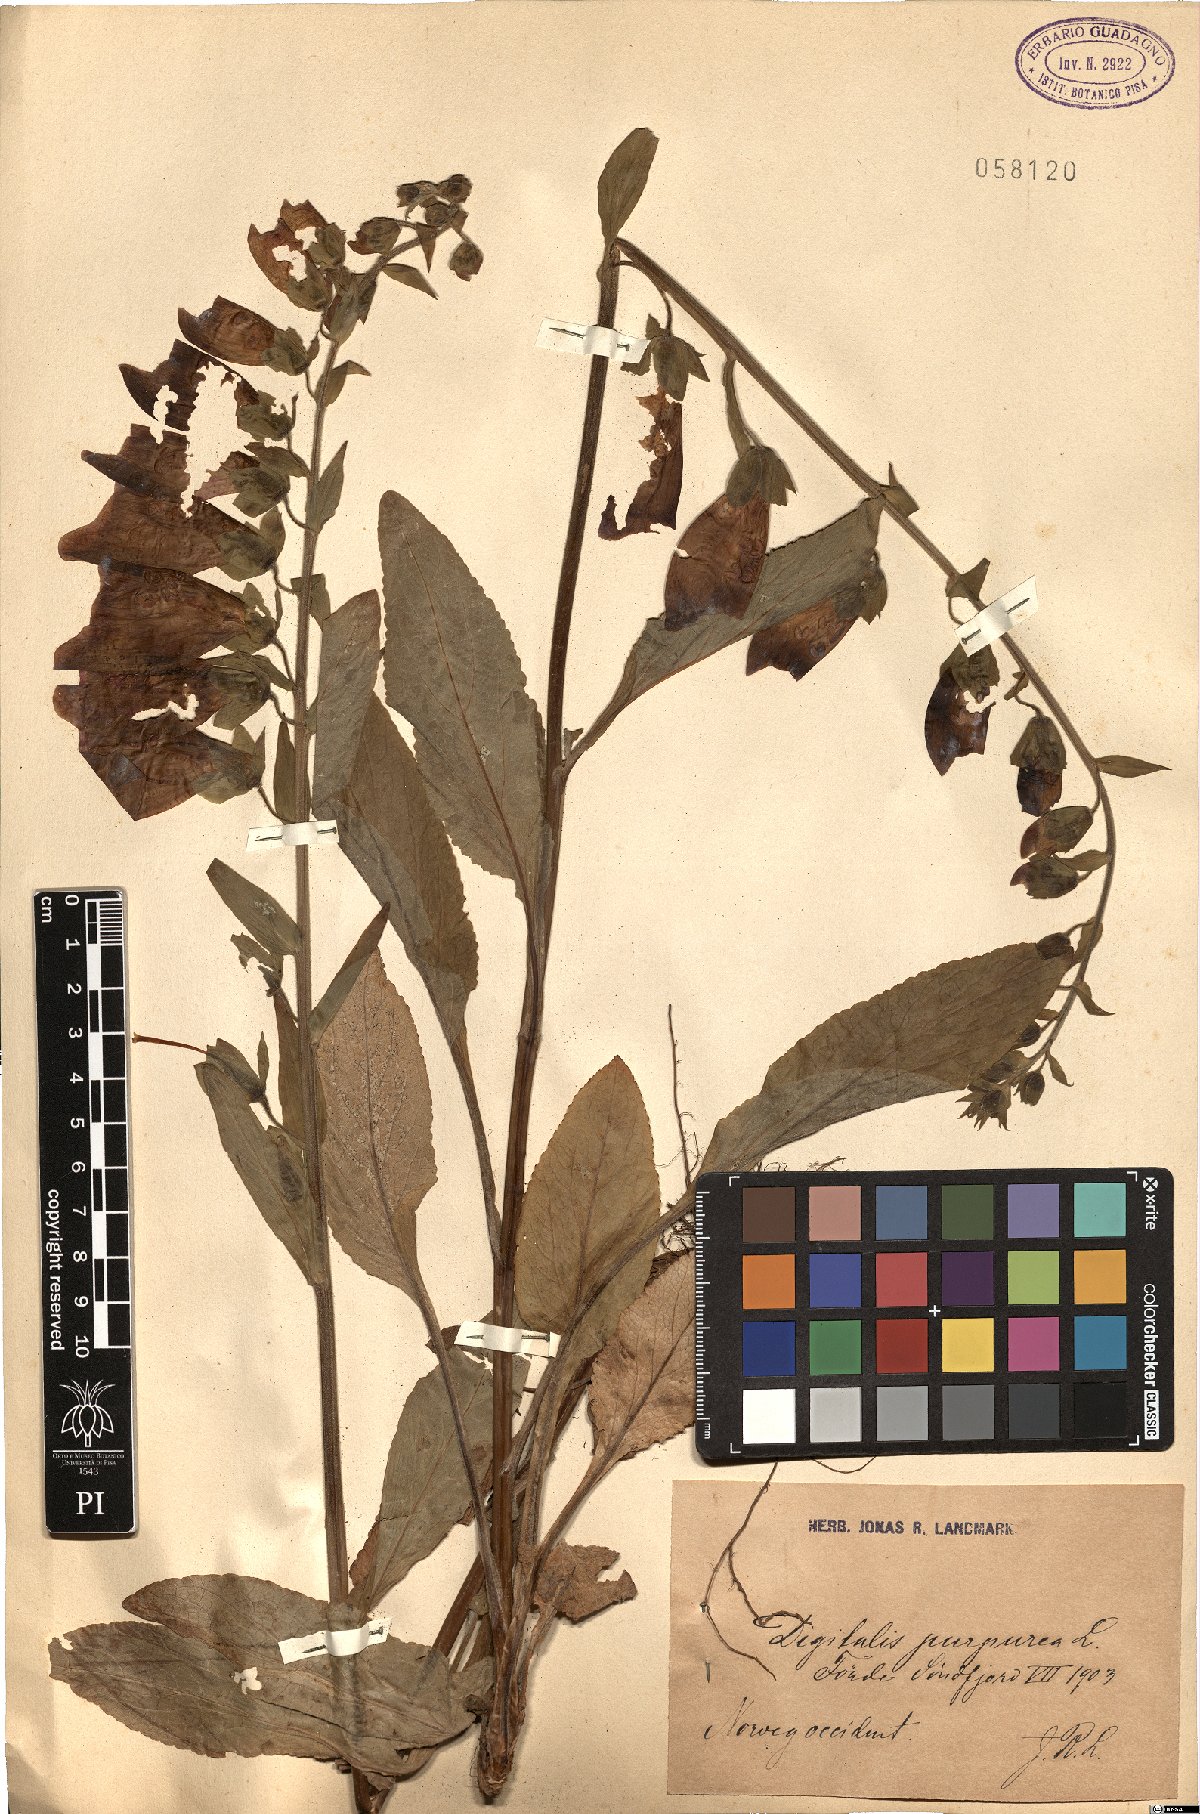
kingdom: Plantae
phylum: Tracheophyta
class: Magnoliopsida
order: Lamiales
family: Plantaginaceae
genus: Digitalis
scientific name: Digitalis purpurea
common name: Foxglove
